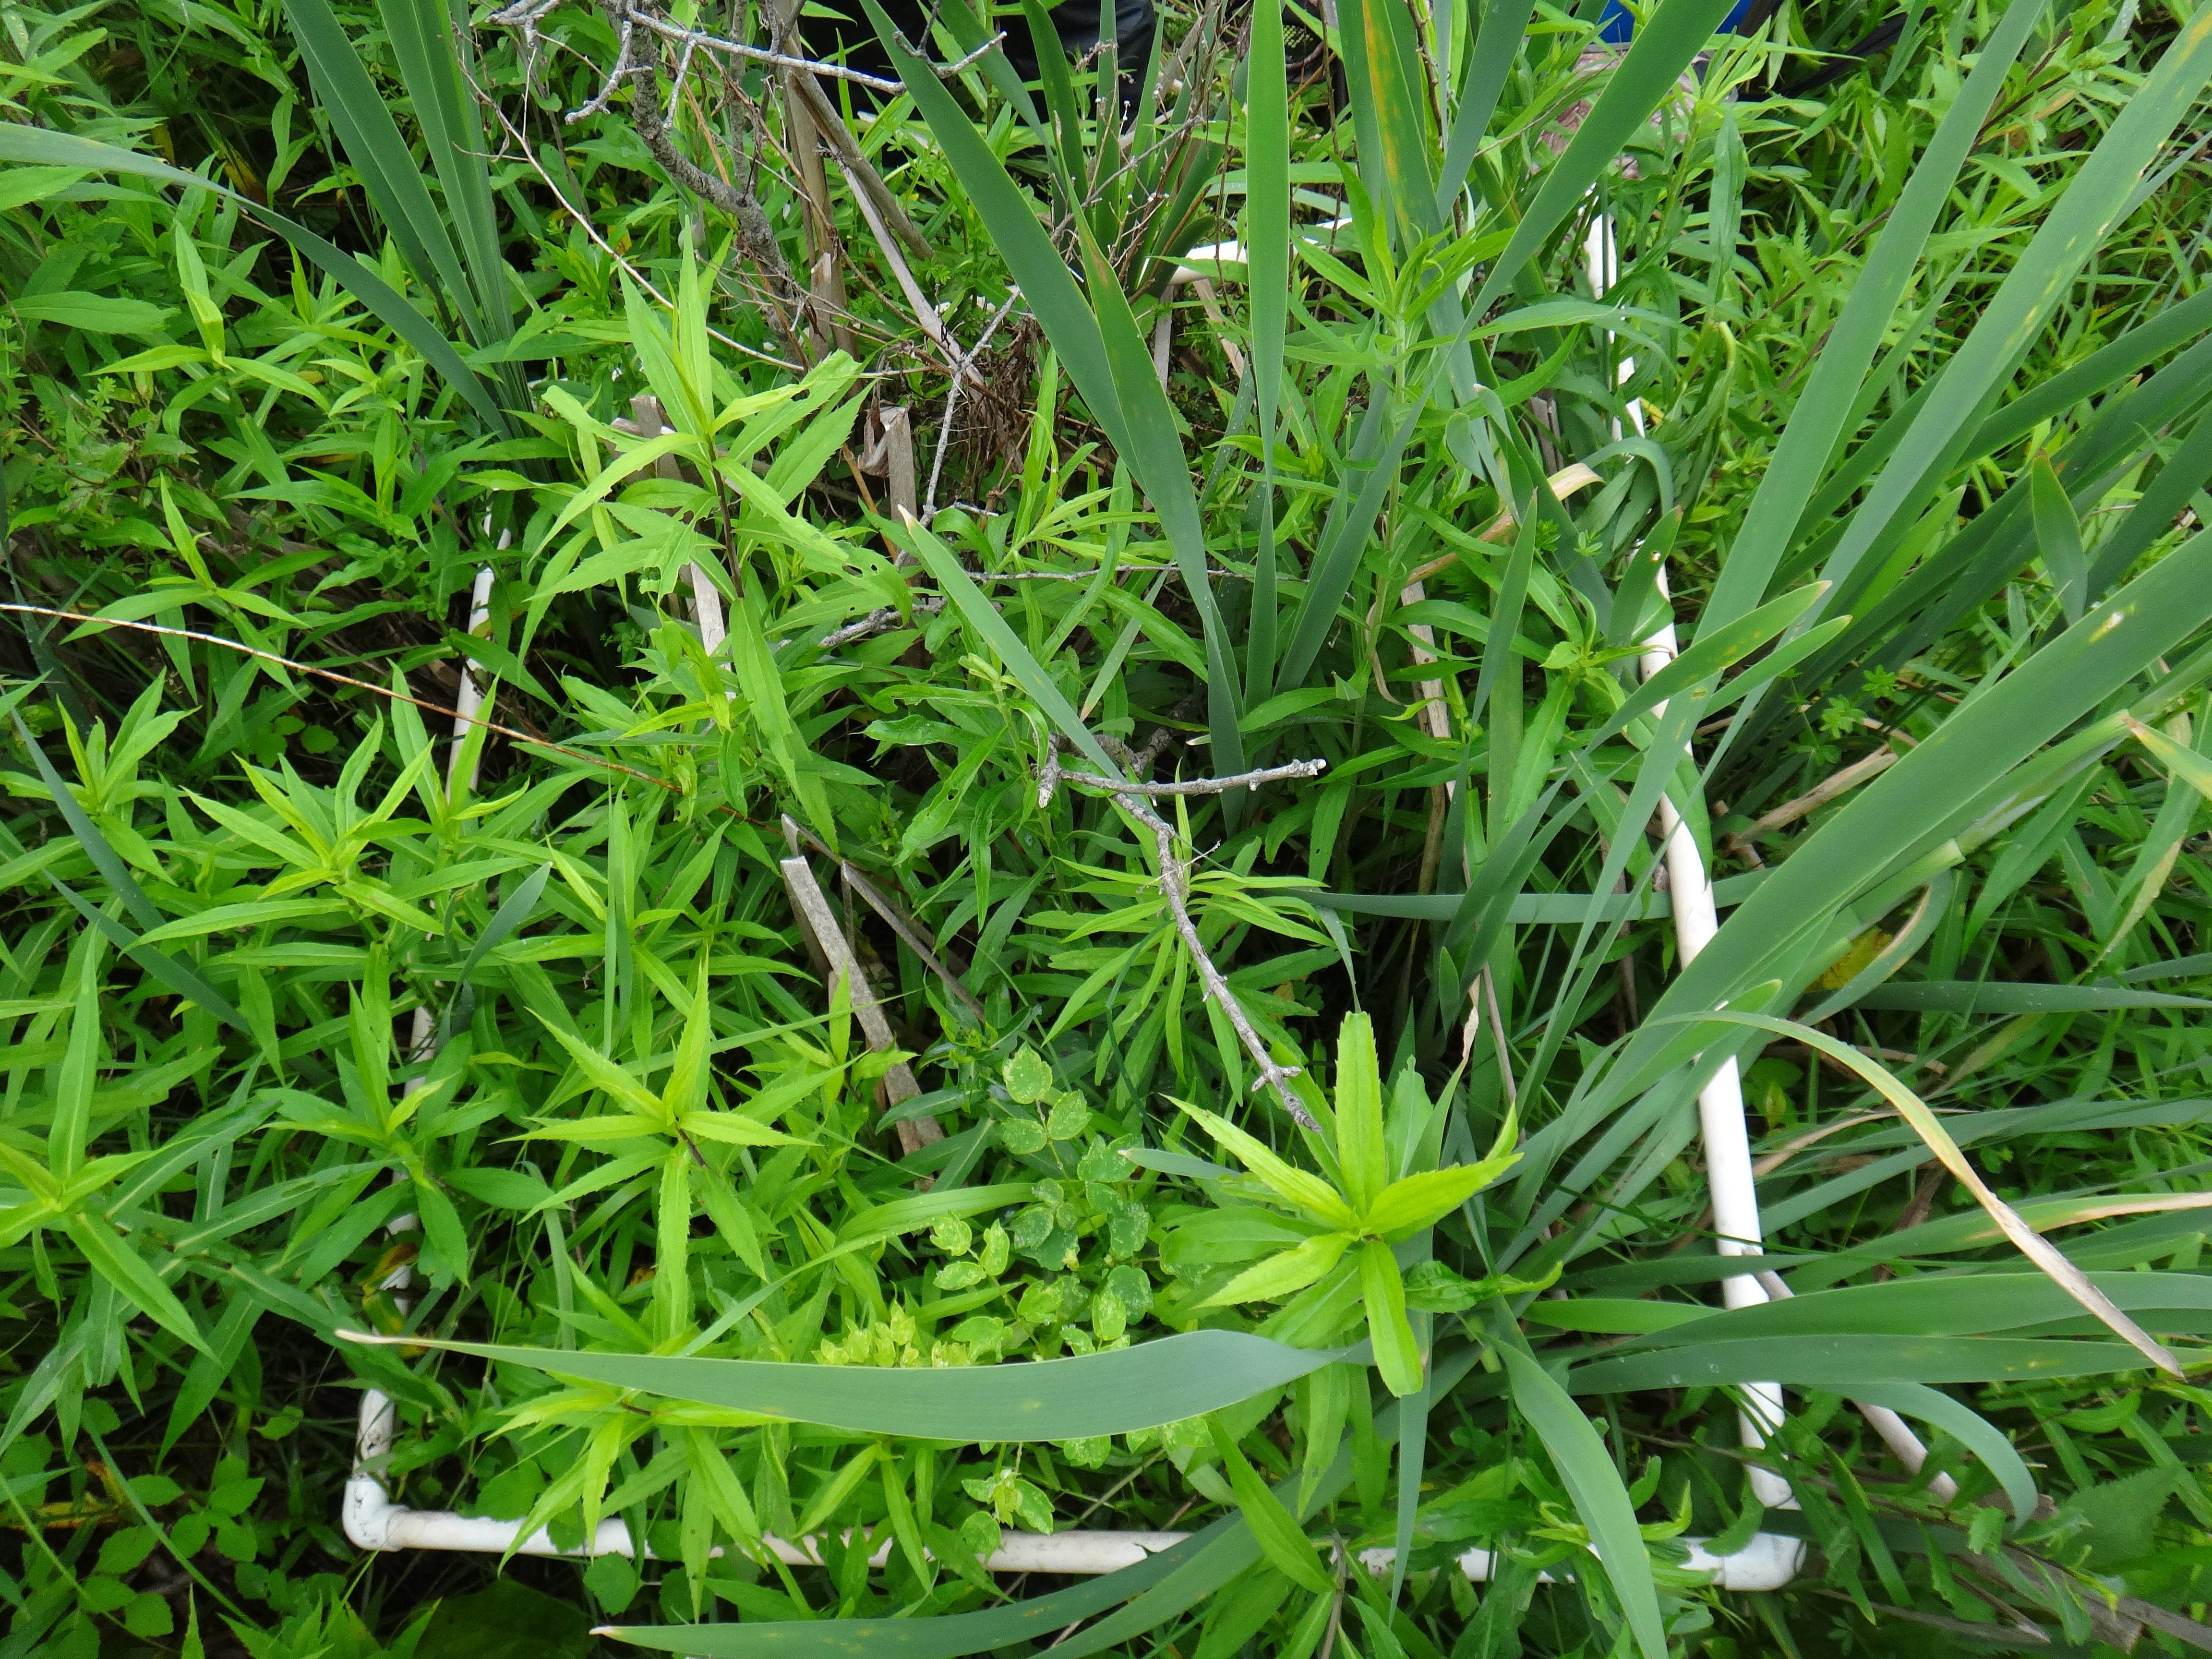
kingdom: Plantae
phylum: Tracheophyta
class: Magnoliopsida
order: Rosales
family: Rosaceae
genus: Dasiphora
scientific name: Dasiphora fruticosa
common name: Shrubby cinquefoil
